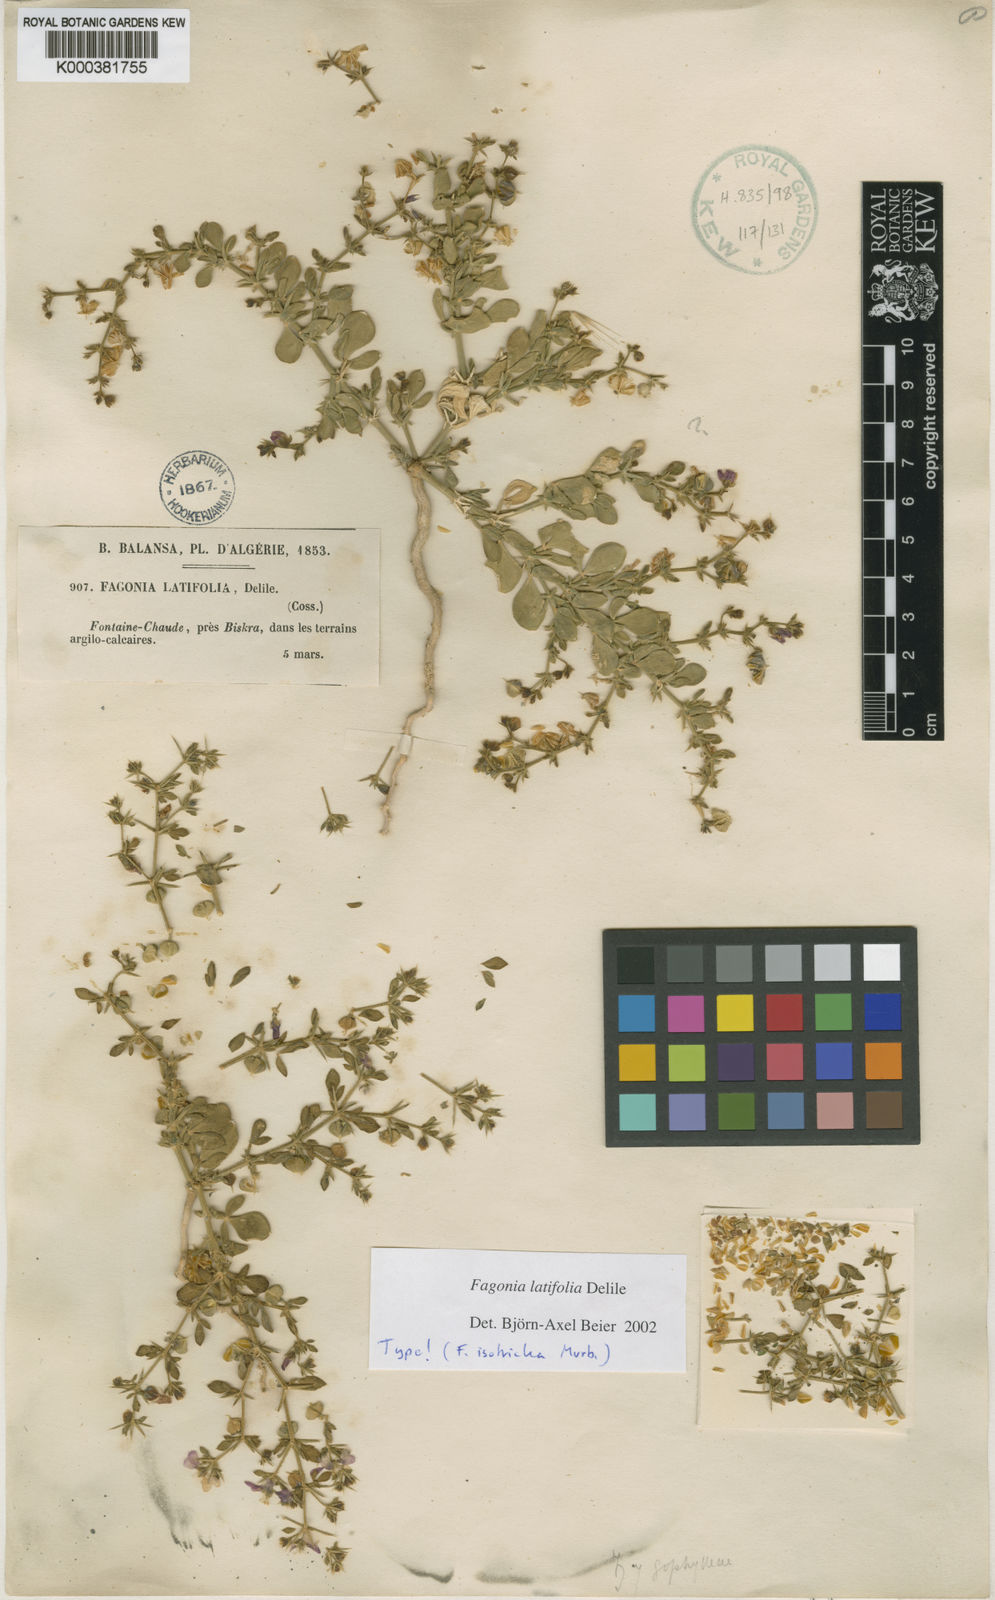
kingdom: Plantae
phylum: Tracheophyta
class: Magnoliopsida
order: Zygophyllales
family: Zygophyllaceae
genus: Fagonia
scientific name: Fagonia latifolia
